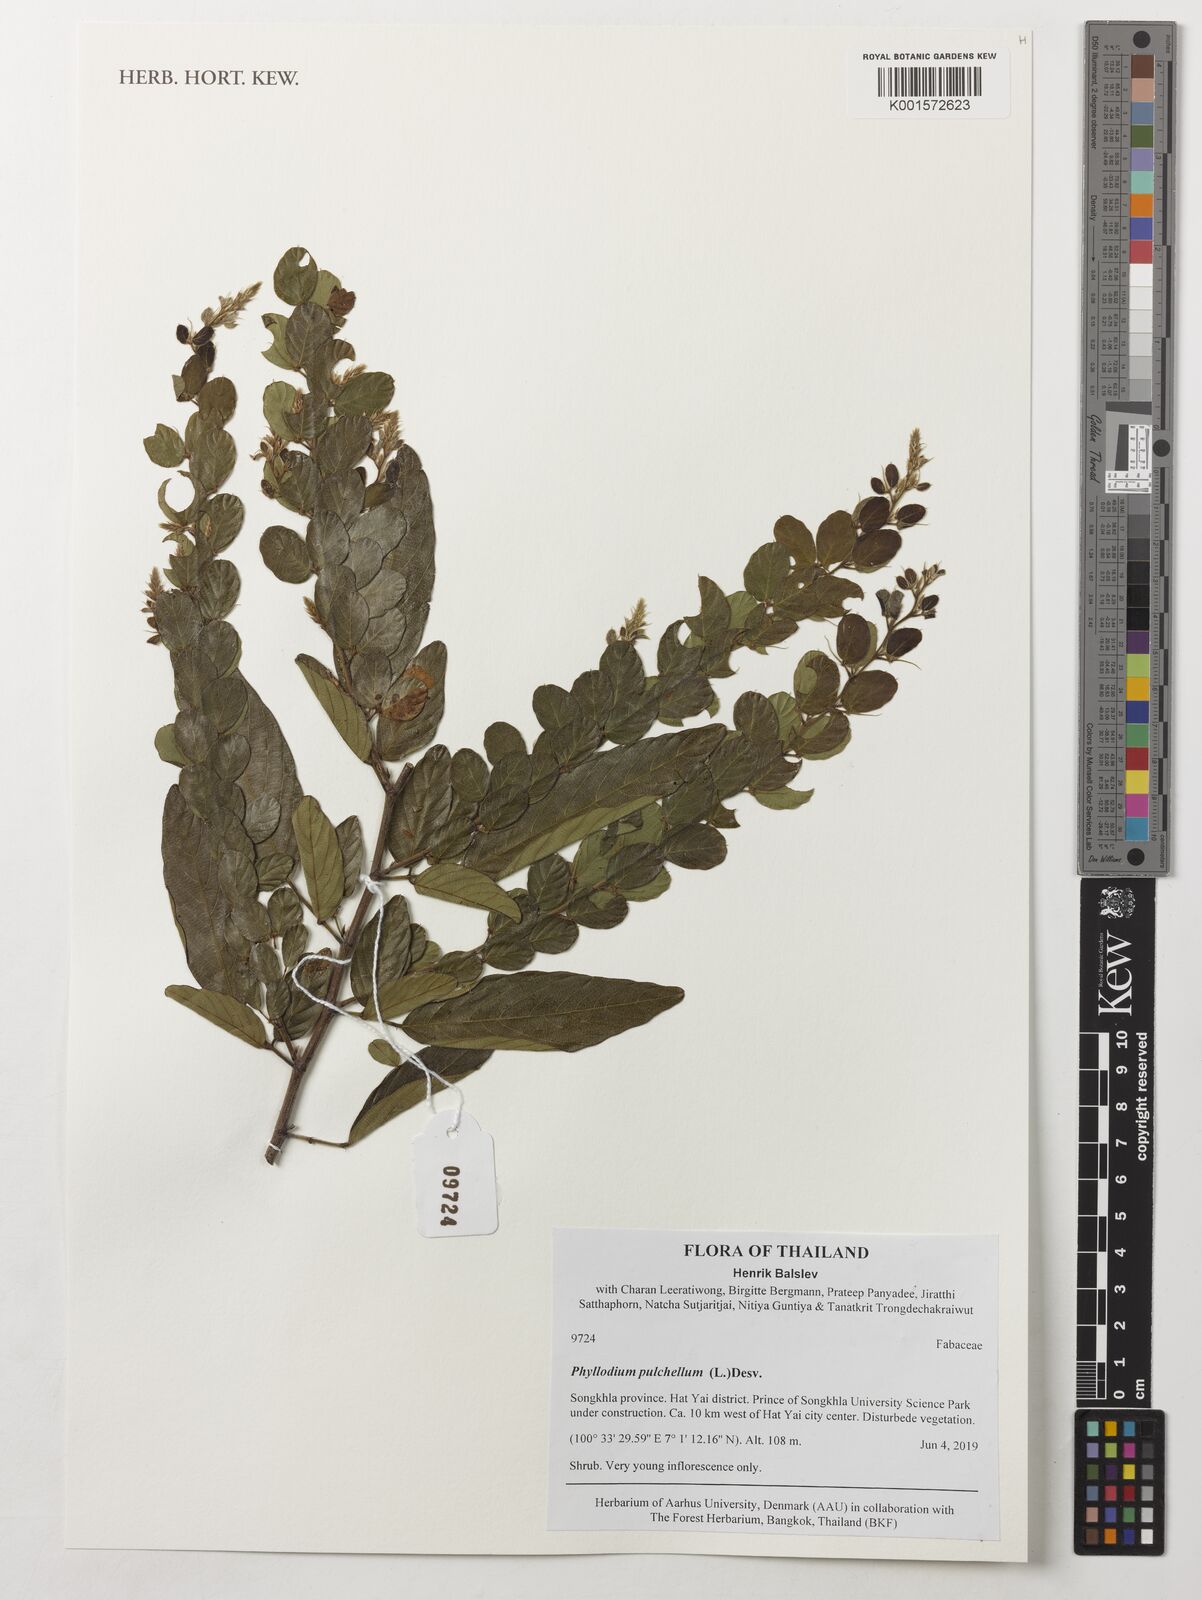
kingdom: Plantae
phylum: Tracheophyta
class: Magnoliopsida
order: Fabales
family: Fabaceae
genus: Phyllodium
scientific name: Phyllodium pulchellum
